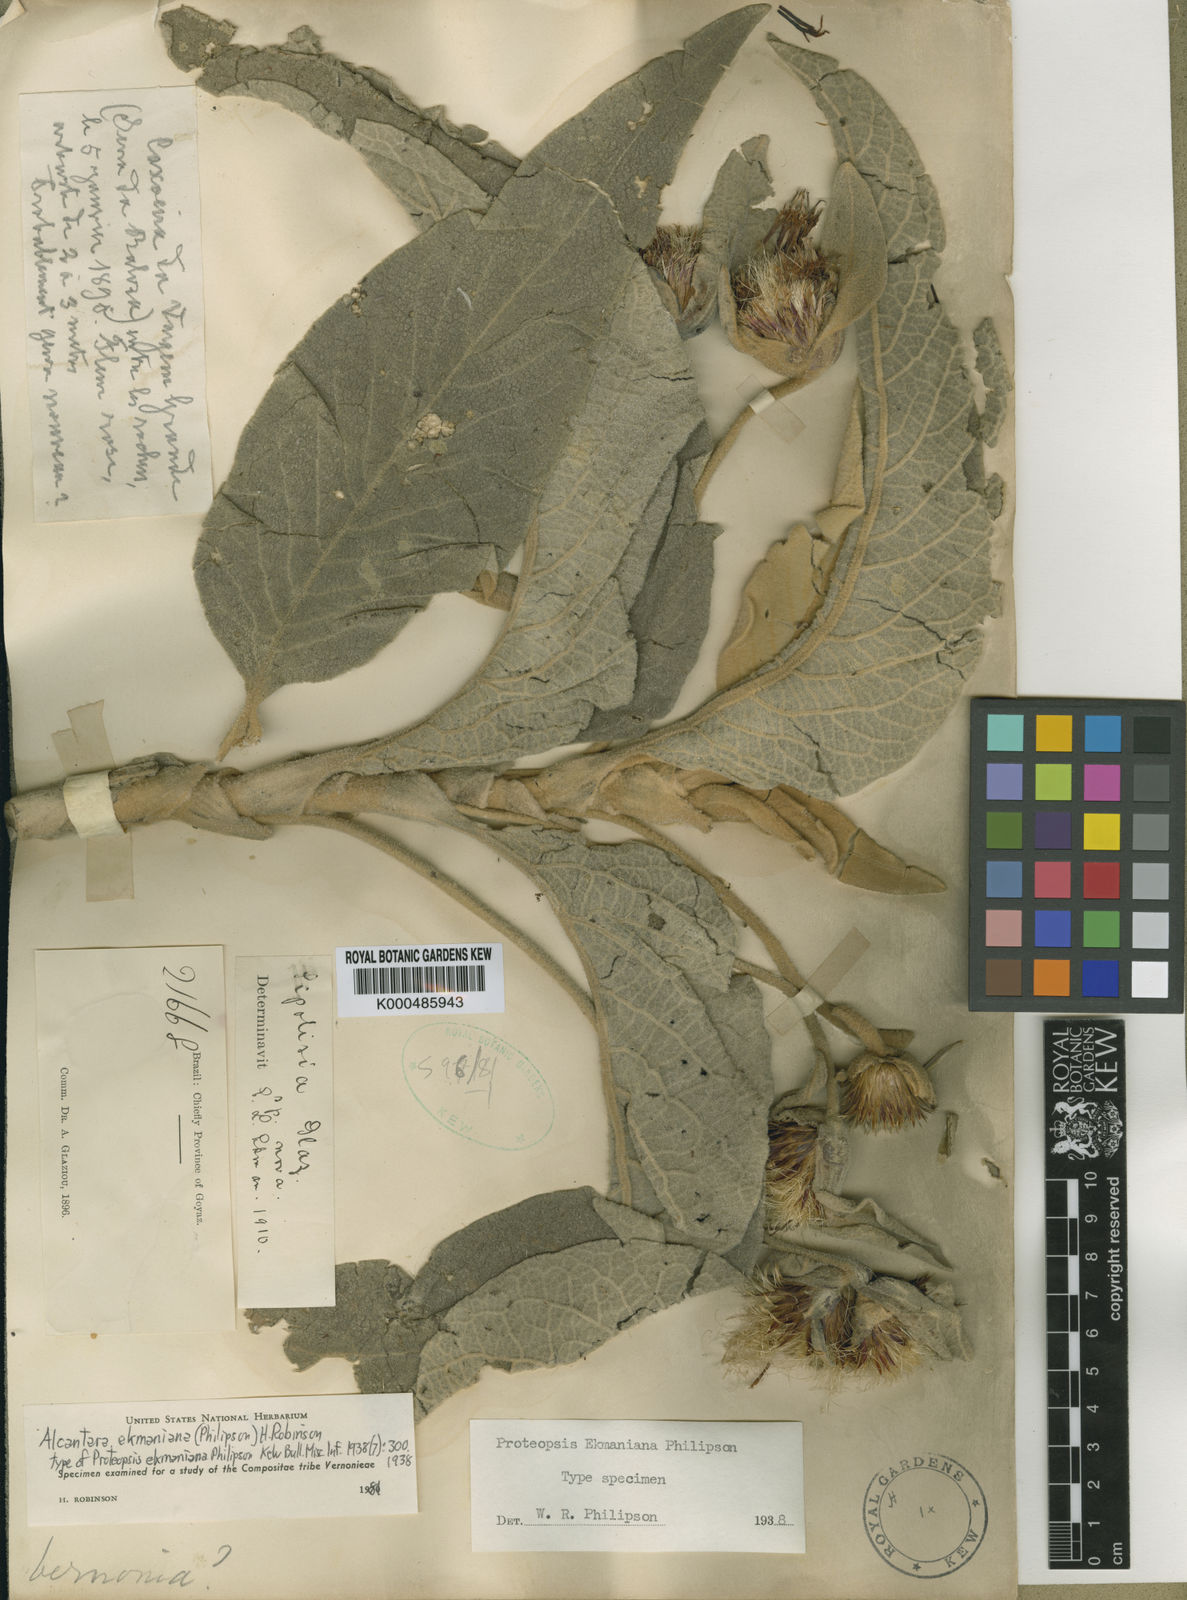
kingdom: Plantae
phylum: Tracheophyta
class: Magnoliopsida
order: Asterales
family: Asteraceae
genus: Heterocoma
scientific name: Heterocoma ekmaniana
